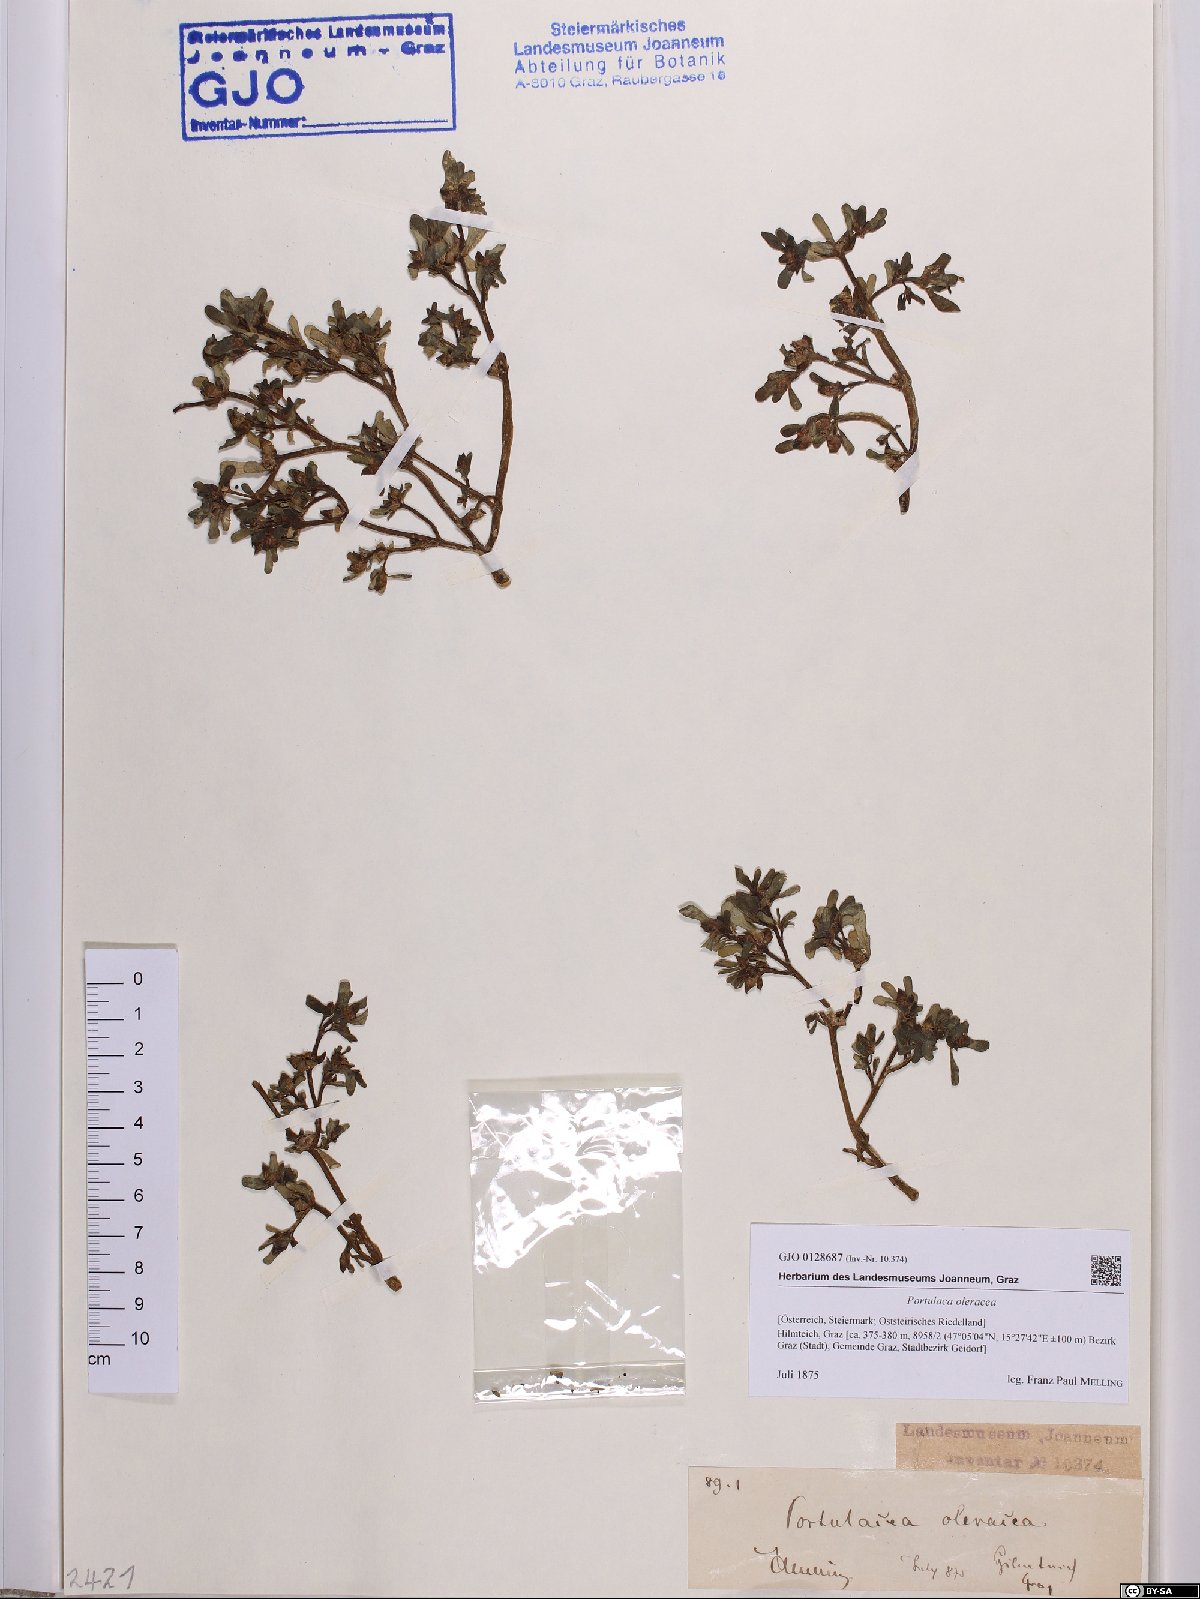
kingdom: Plantae
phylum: Tracheophyta
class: Magnoliopsida
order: Caryophyllales
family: Portulacaceae
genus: Portulaca
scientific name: Portulaca oleracea
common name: Common purslane
